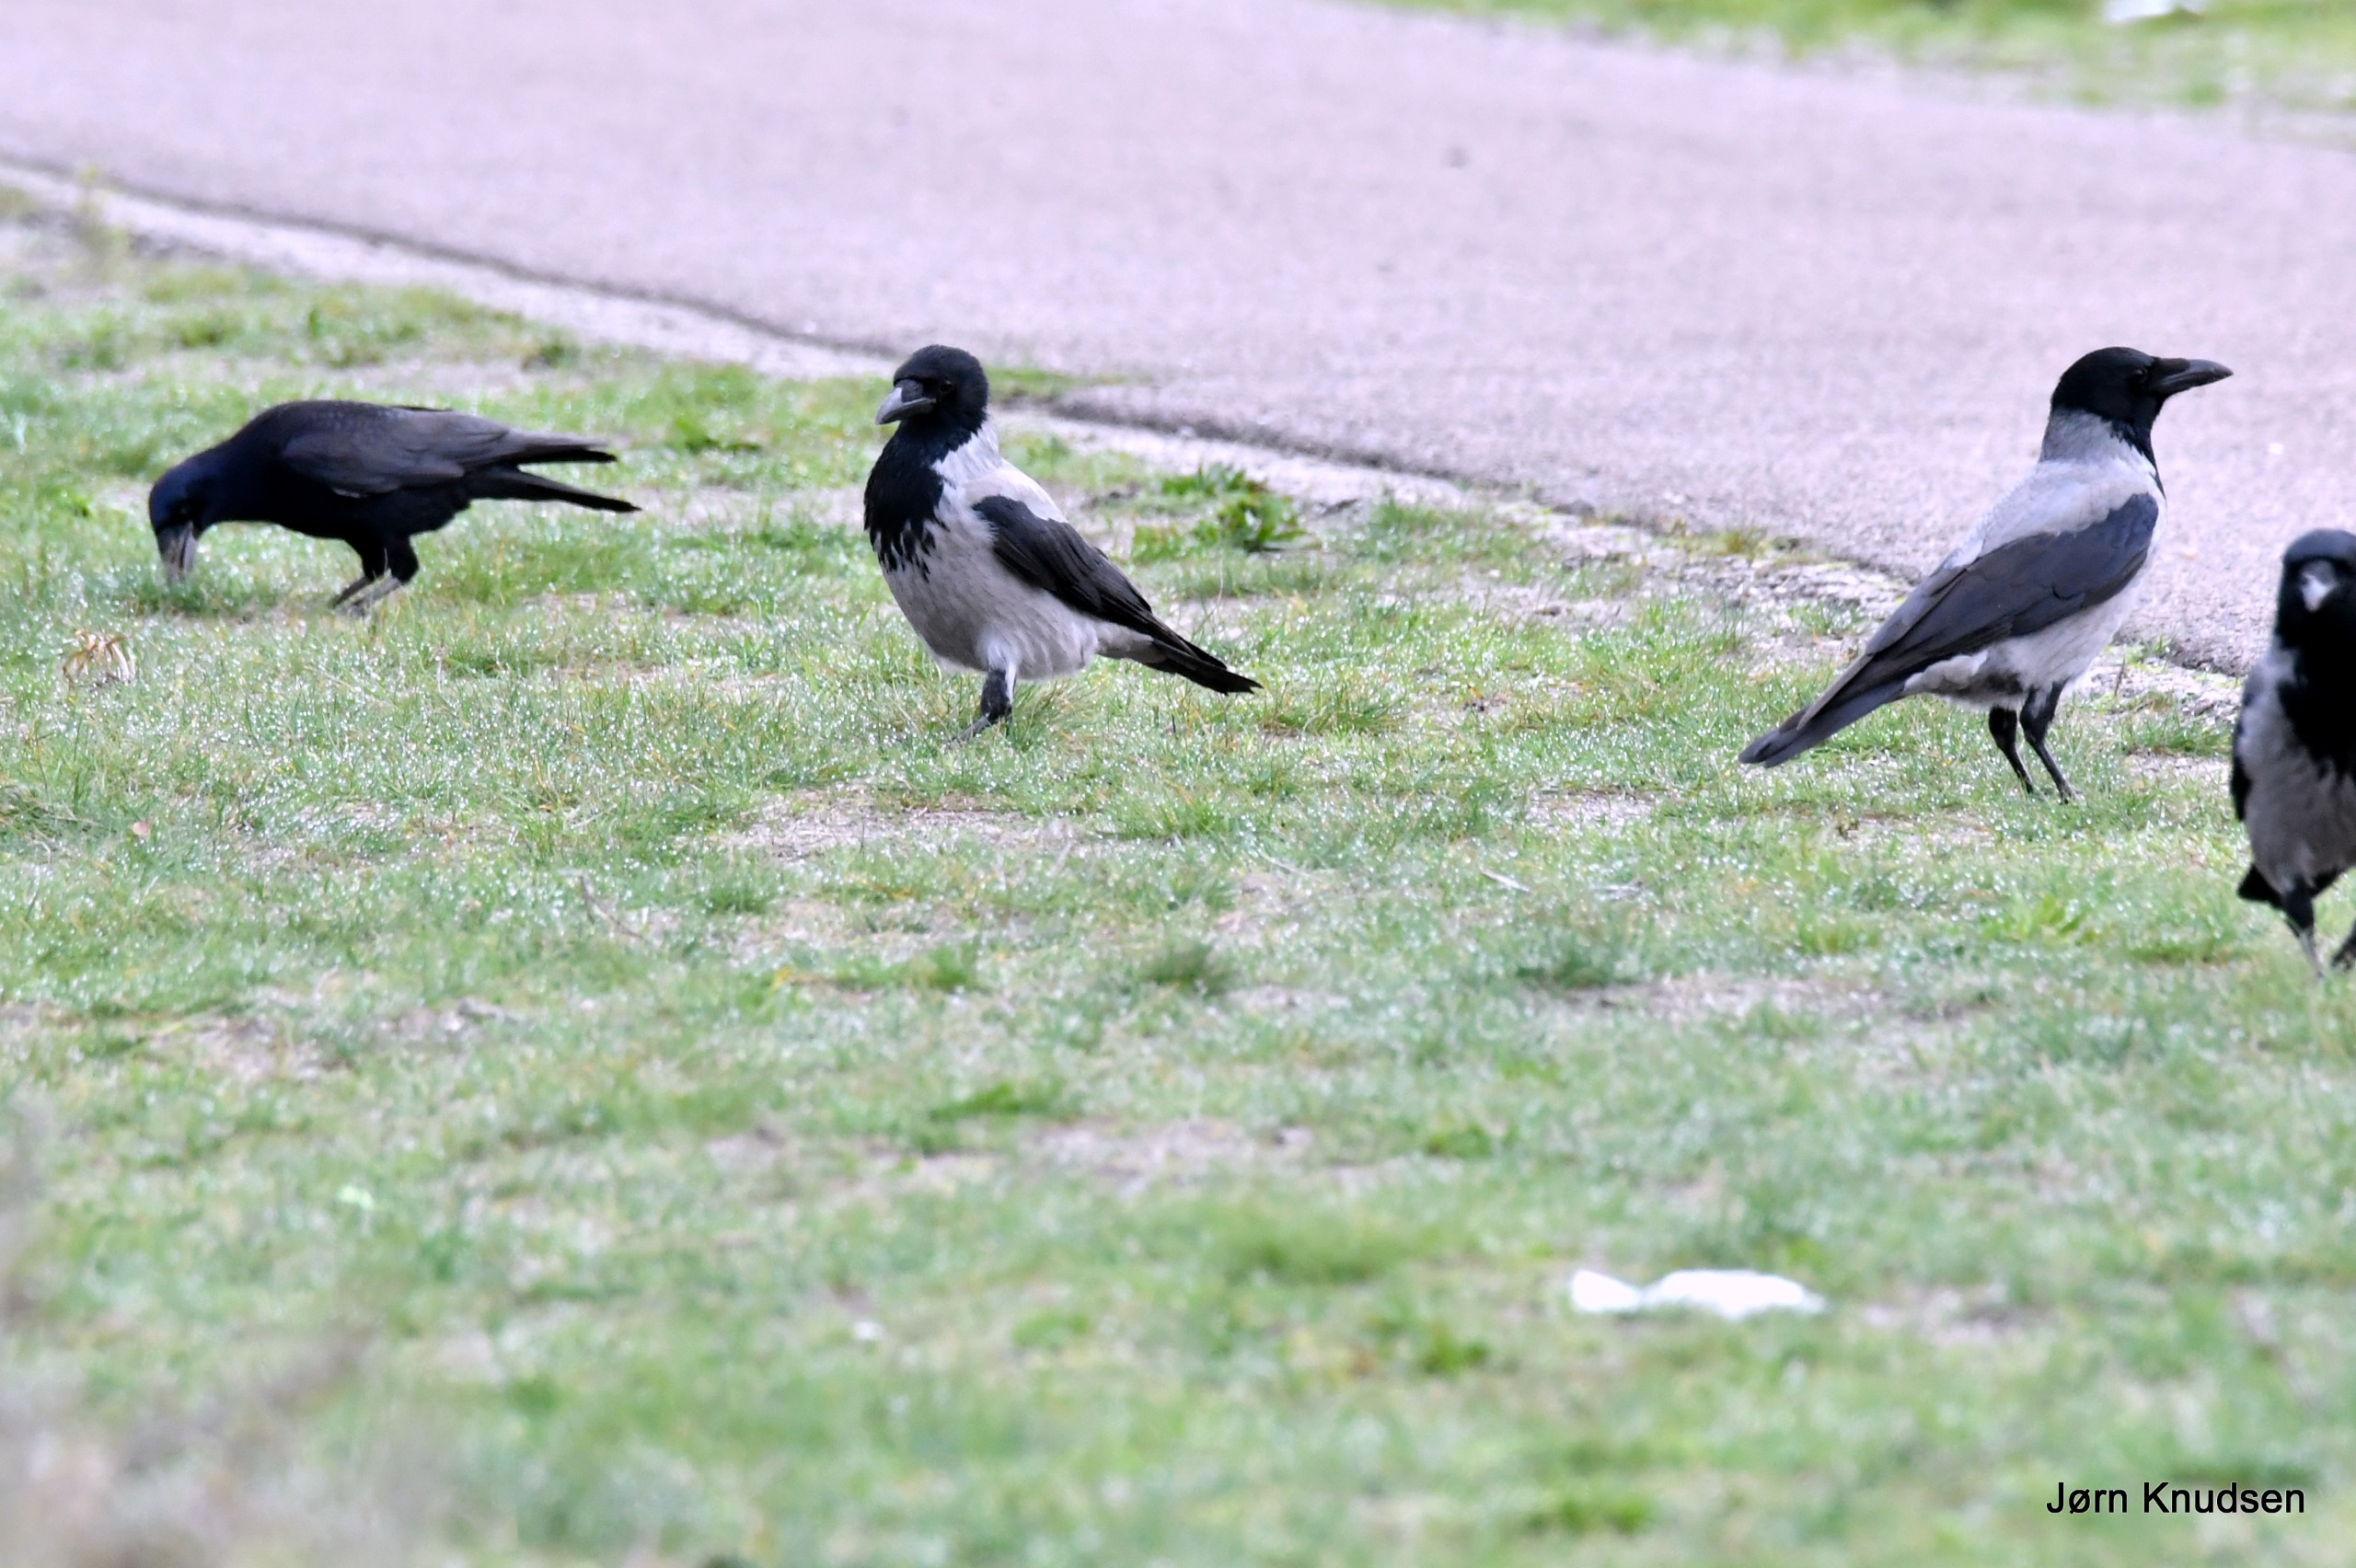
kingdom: Animalia
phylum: Chordata
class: Aves
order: Passeriformes
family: Corvidae
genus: Corvus
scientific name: Corvus cornix
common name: Gråkrage
